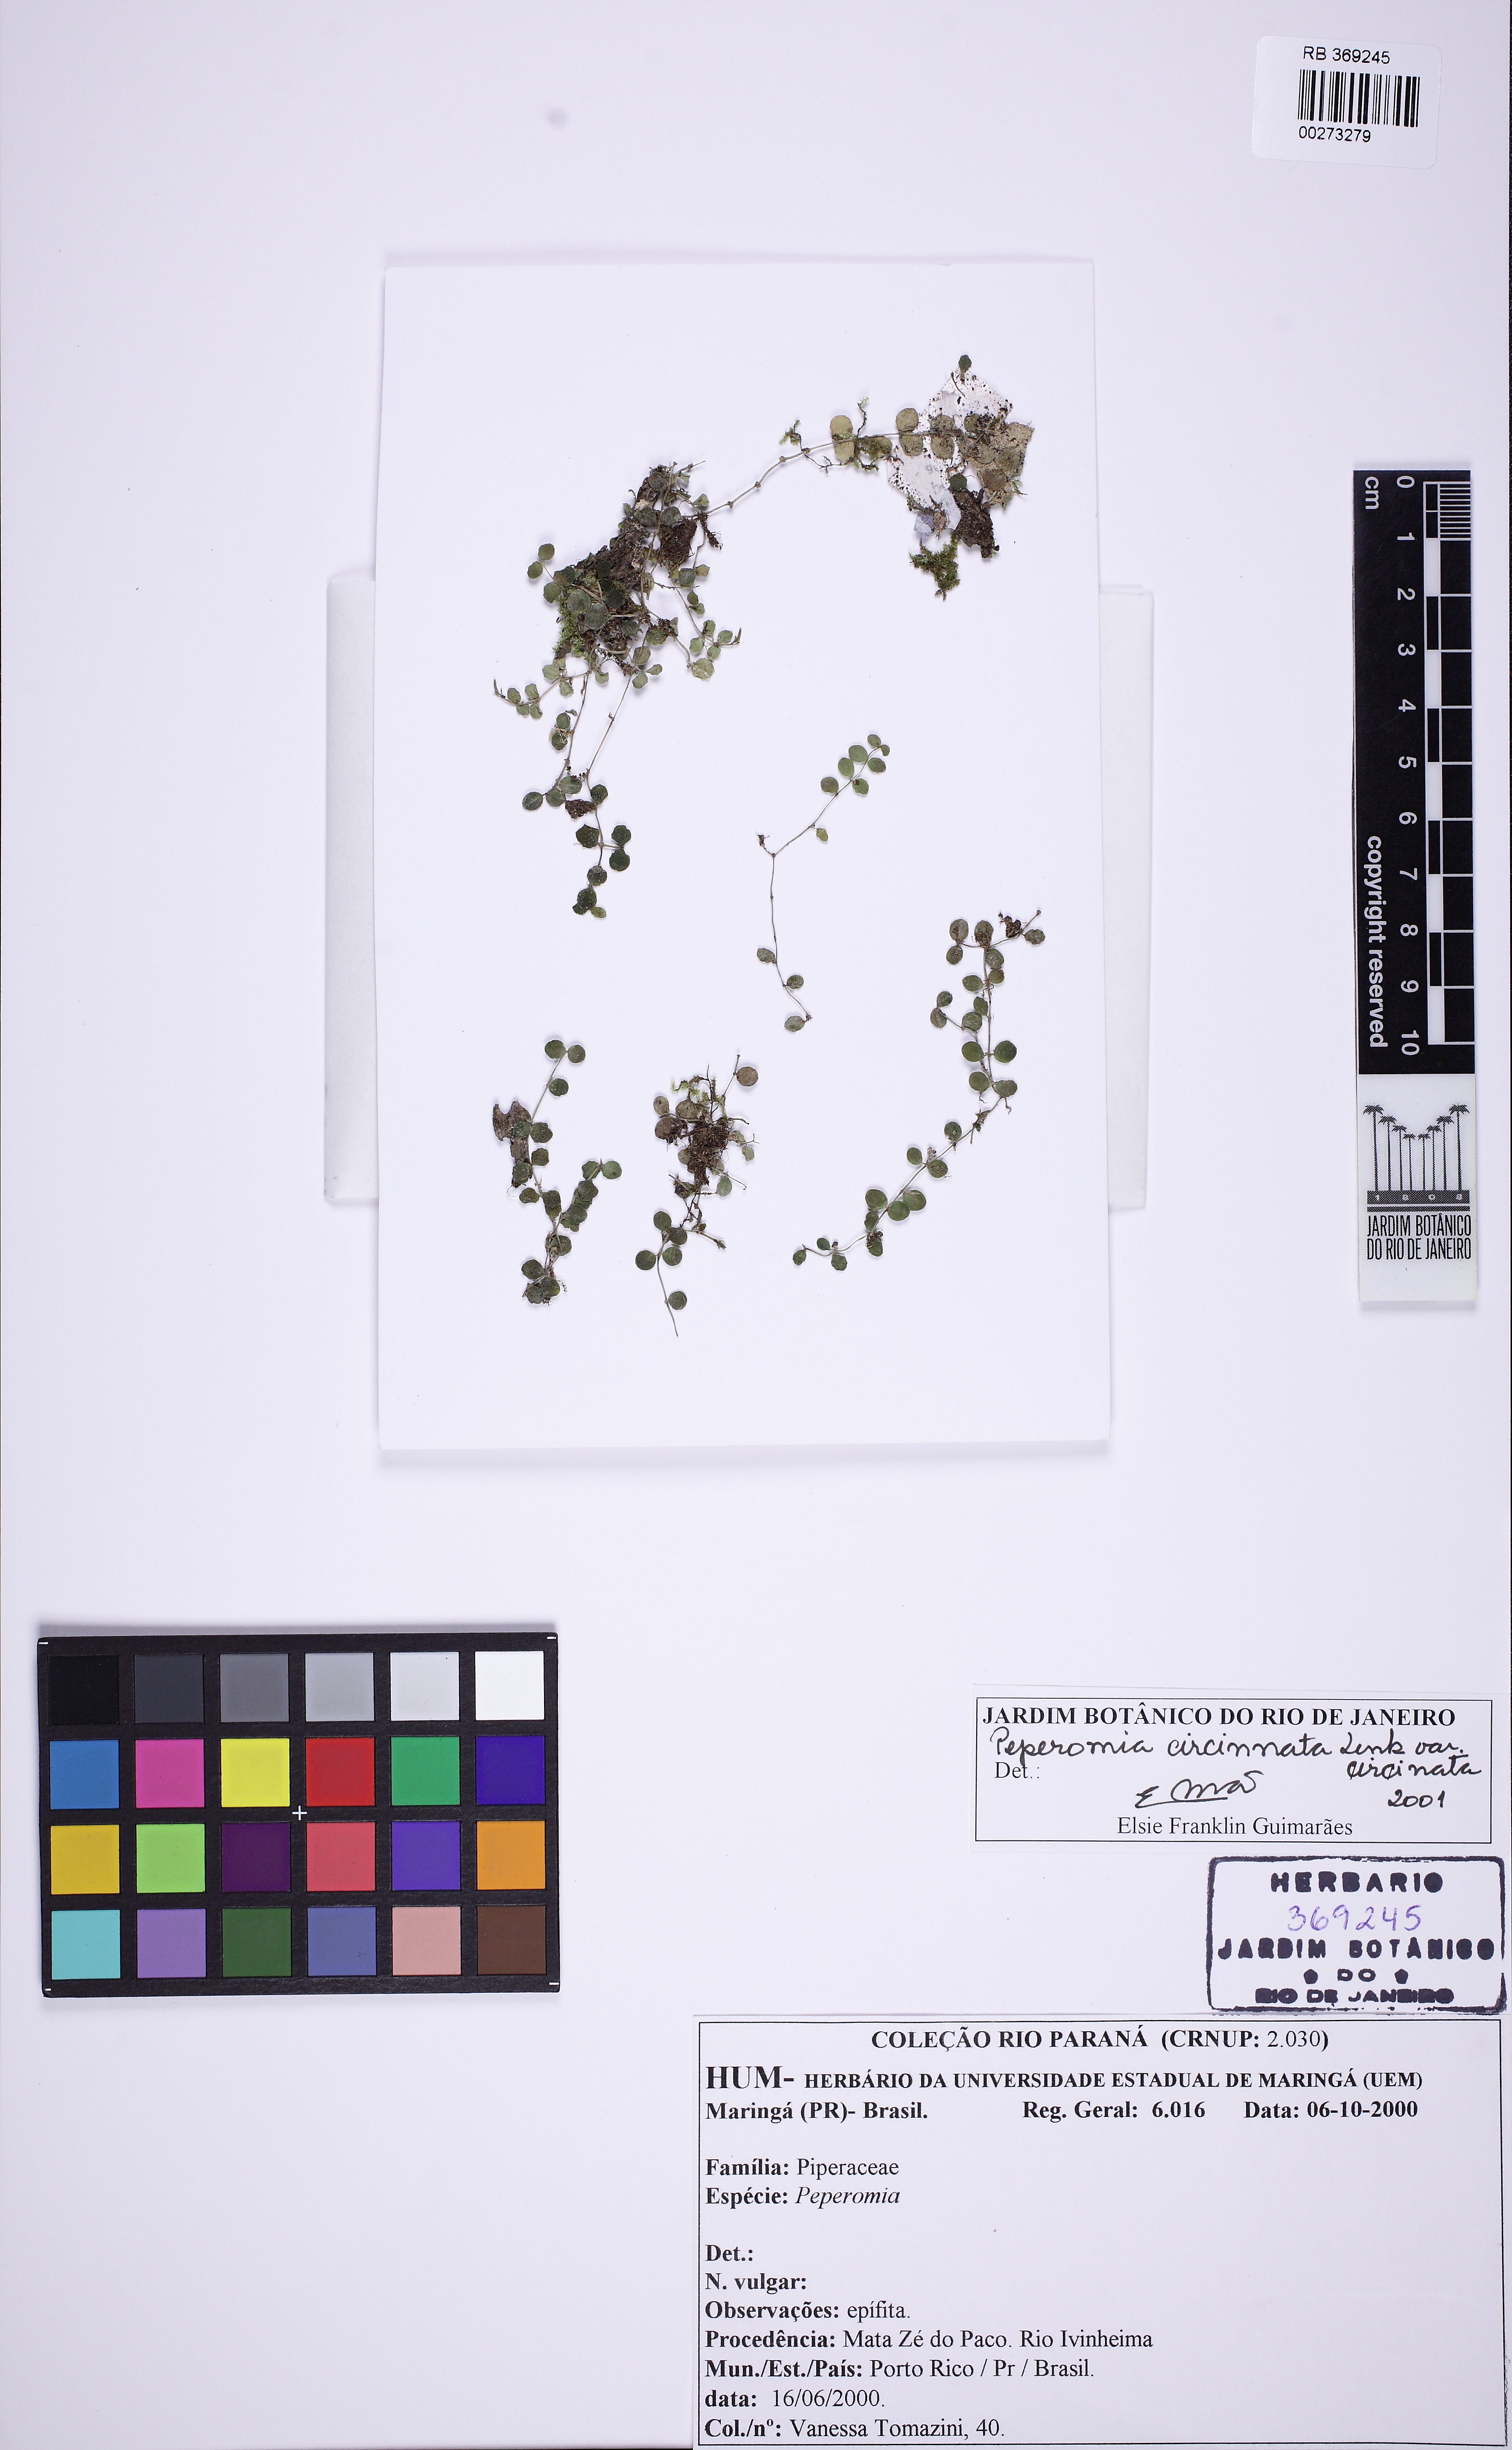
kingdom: Plantae
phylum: Tracheophyta
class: Magnoliopsida
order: Piperales
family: Piperaceae
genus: Peperomia
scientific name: Peperomia circinnata
